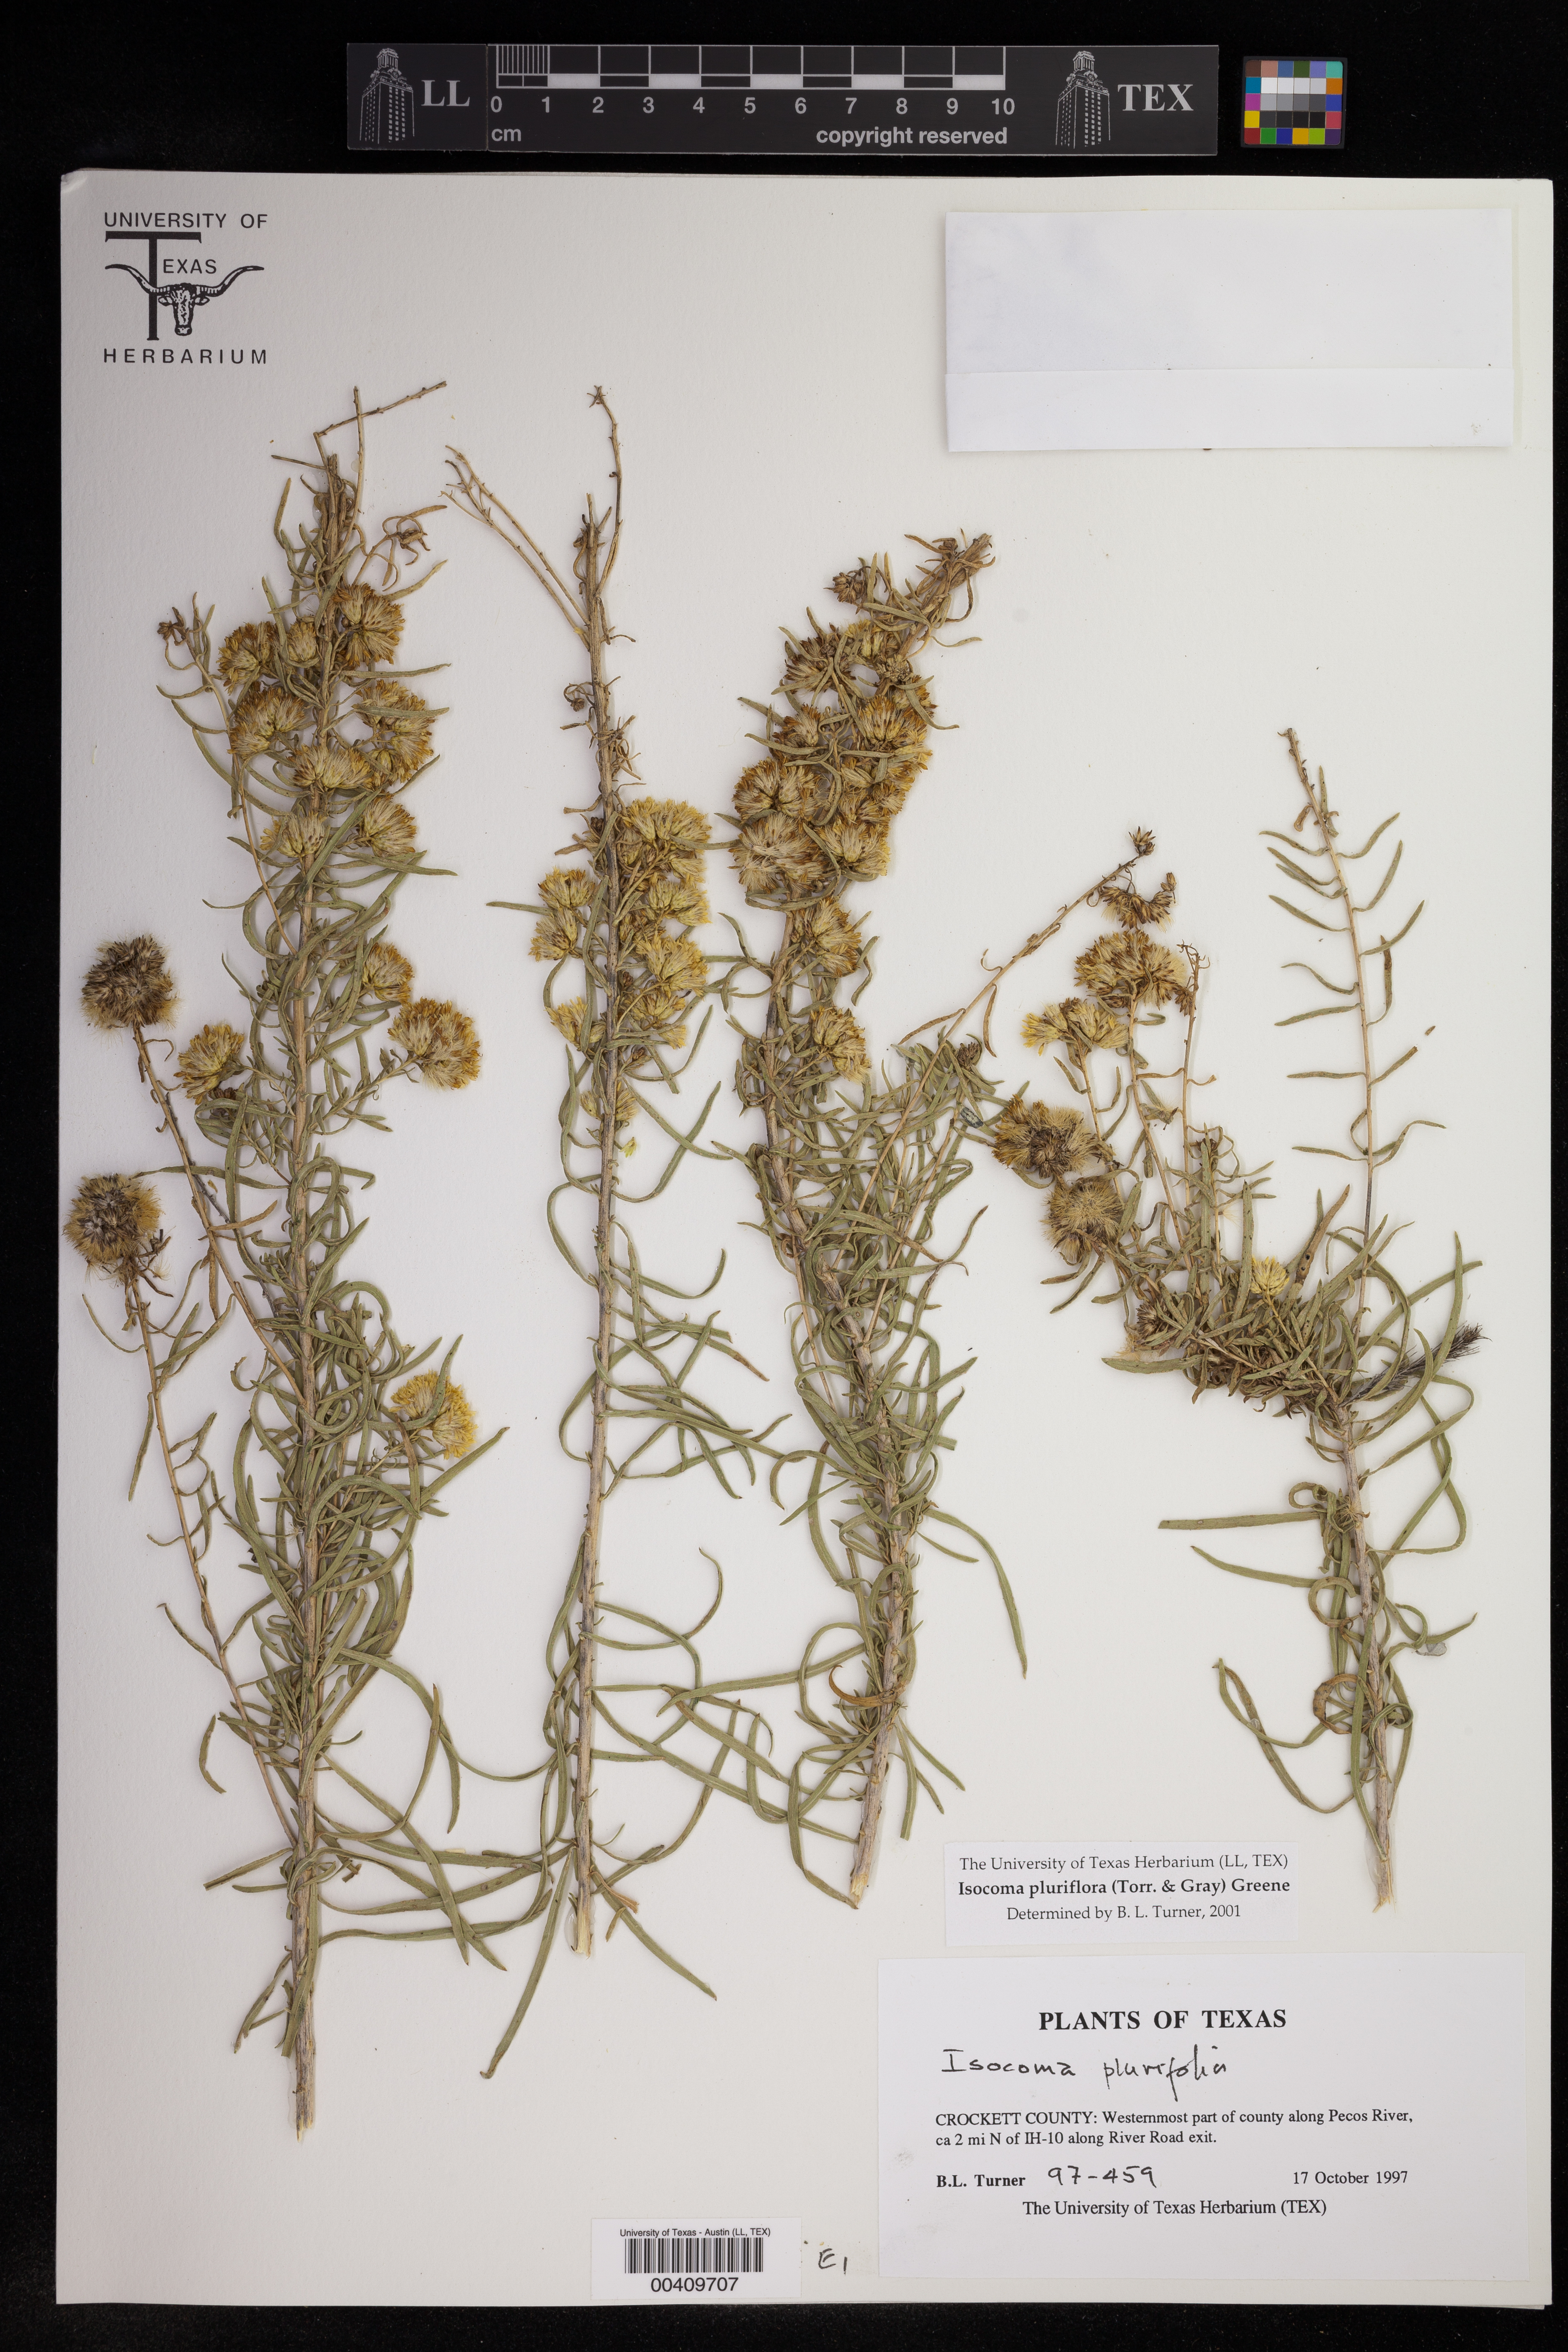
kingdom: Plantae
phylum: Tracheophyta
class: Magnoliopsida
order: Asterales
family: Asteraceae
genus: Isocoma
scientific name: Isocoma pluriflora
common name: Southern jimmyweed
